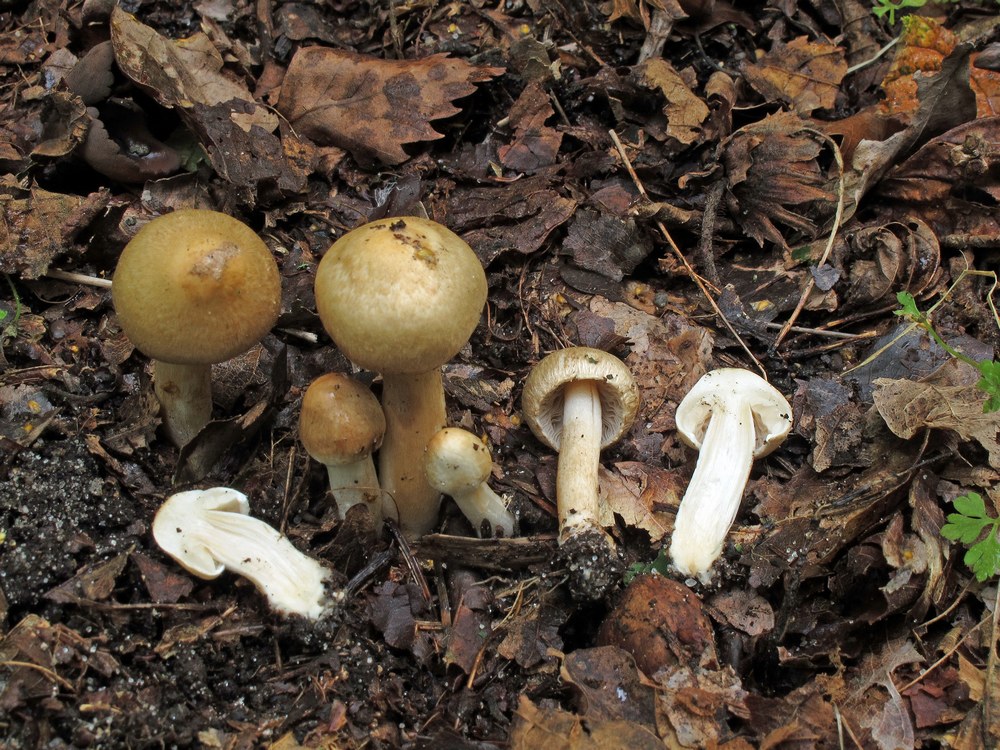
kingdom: Fungi
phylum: Basidiomycota
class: Agaricomycetes
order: Agaricales
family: Inocybaceae
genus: Inocybe
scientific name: Inocybe sindonia
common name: bleg trævlhat
